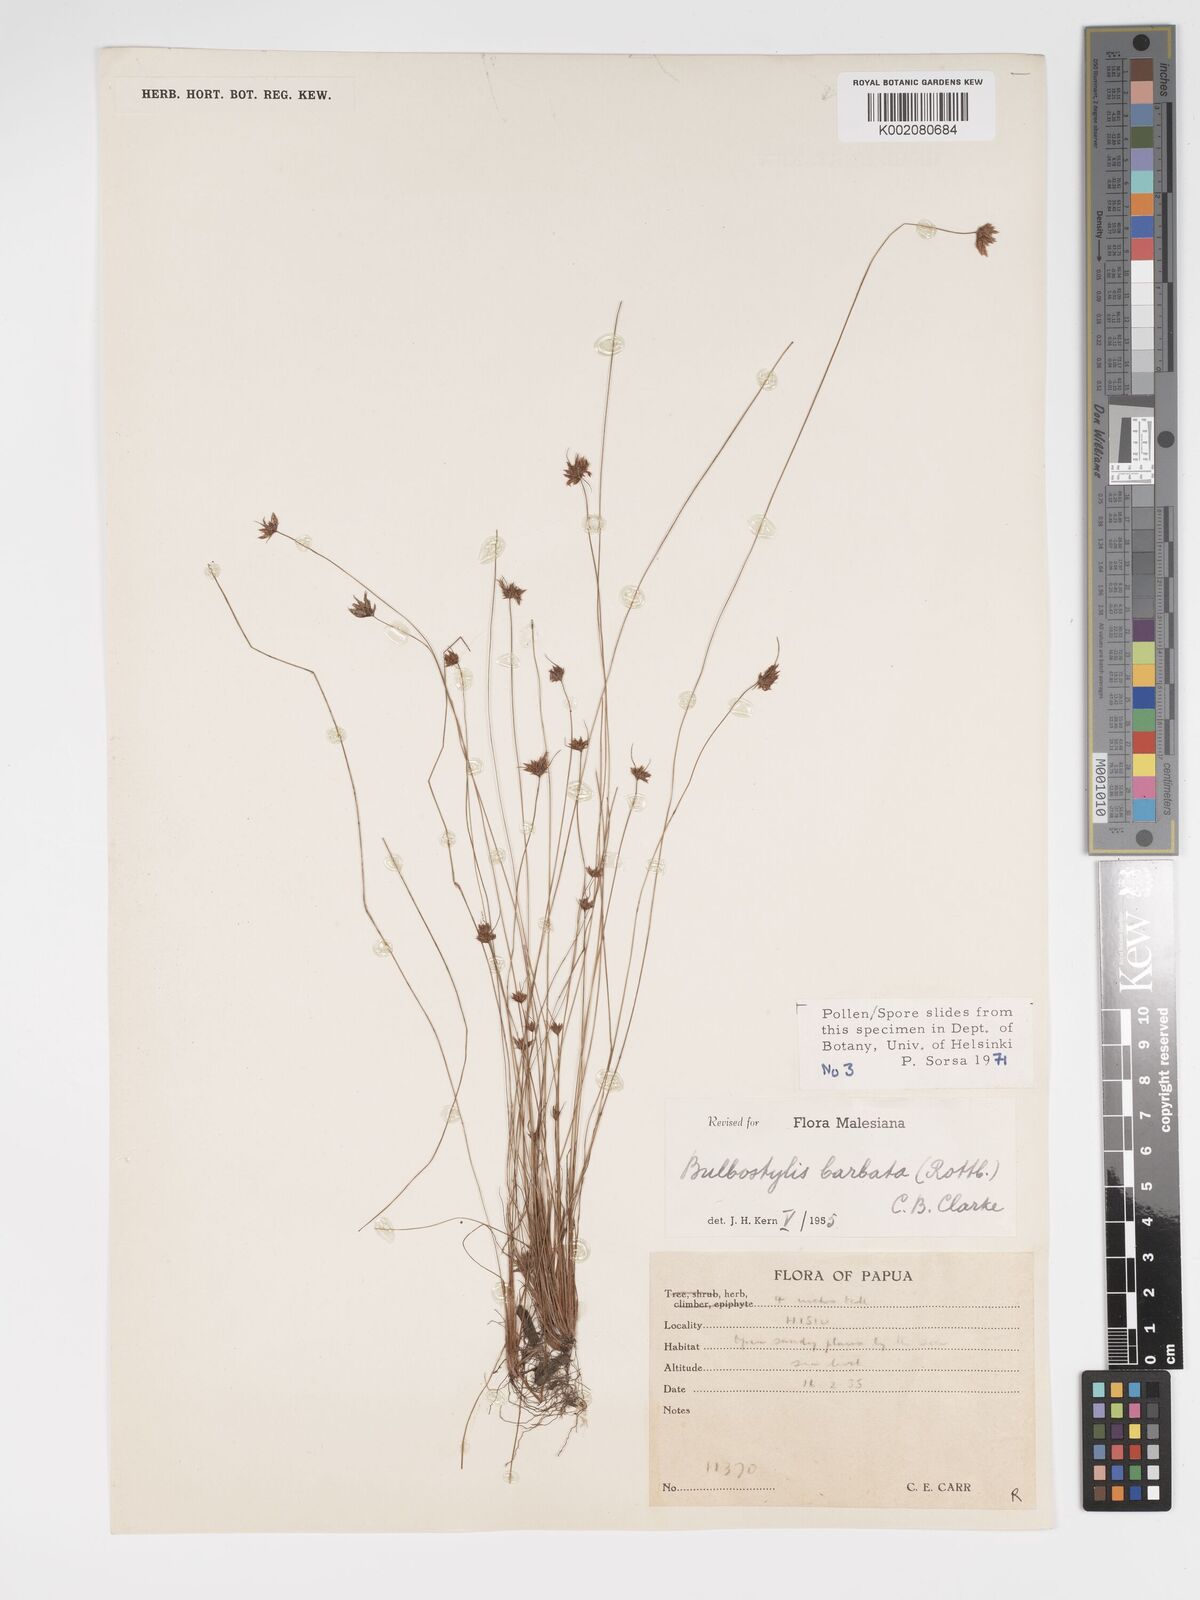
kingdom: Plantae
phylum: Tracheophyta
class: Liliopsida
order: Poales
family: Cyperaceae
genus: Bulbostylis
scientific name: Bulbostylis barbata
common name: Watergrass
